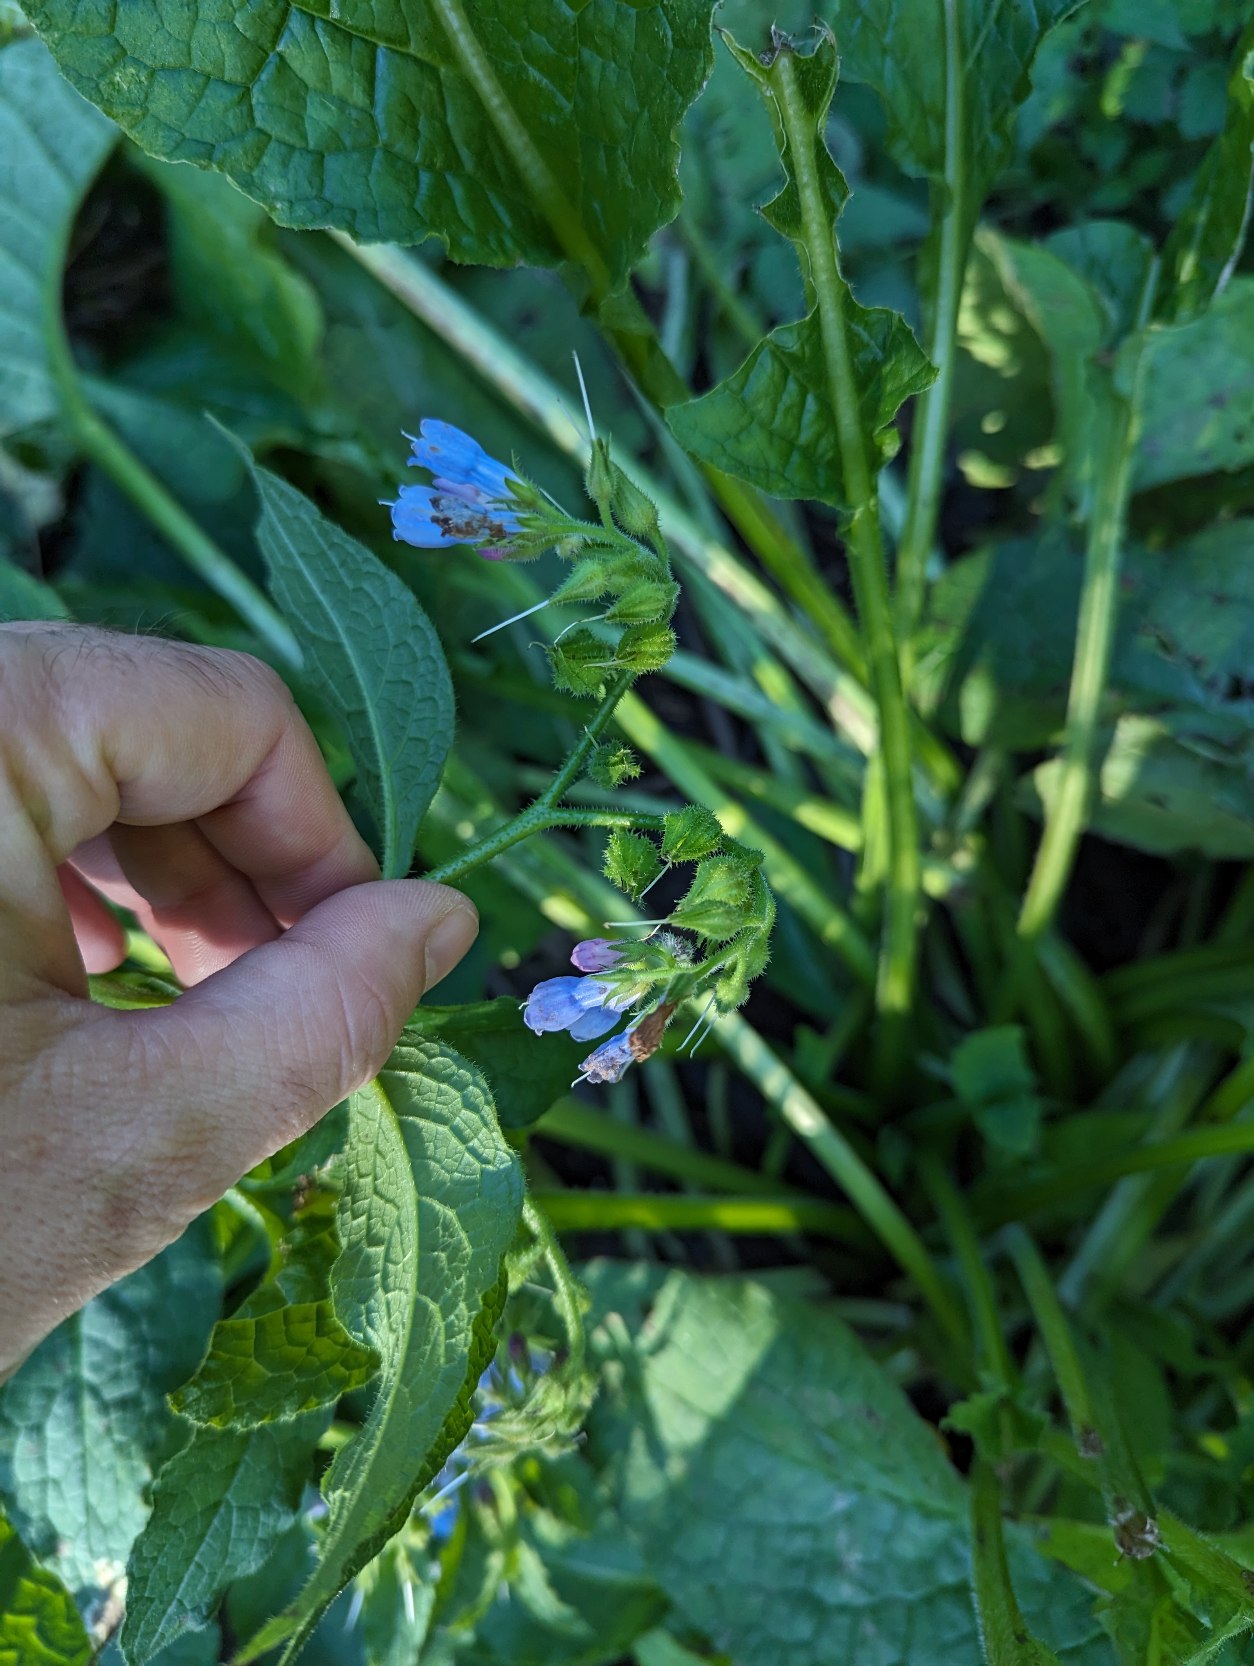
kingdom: Plantae
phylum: Tracheophyta
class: Magnoliopsida
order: Boraginales
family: Boraginaceae
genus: Symphytum
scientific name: Symphytum uplandicum
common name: Foder-kulsukker
